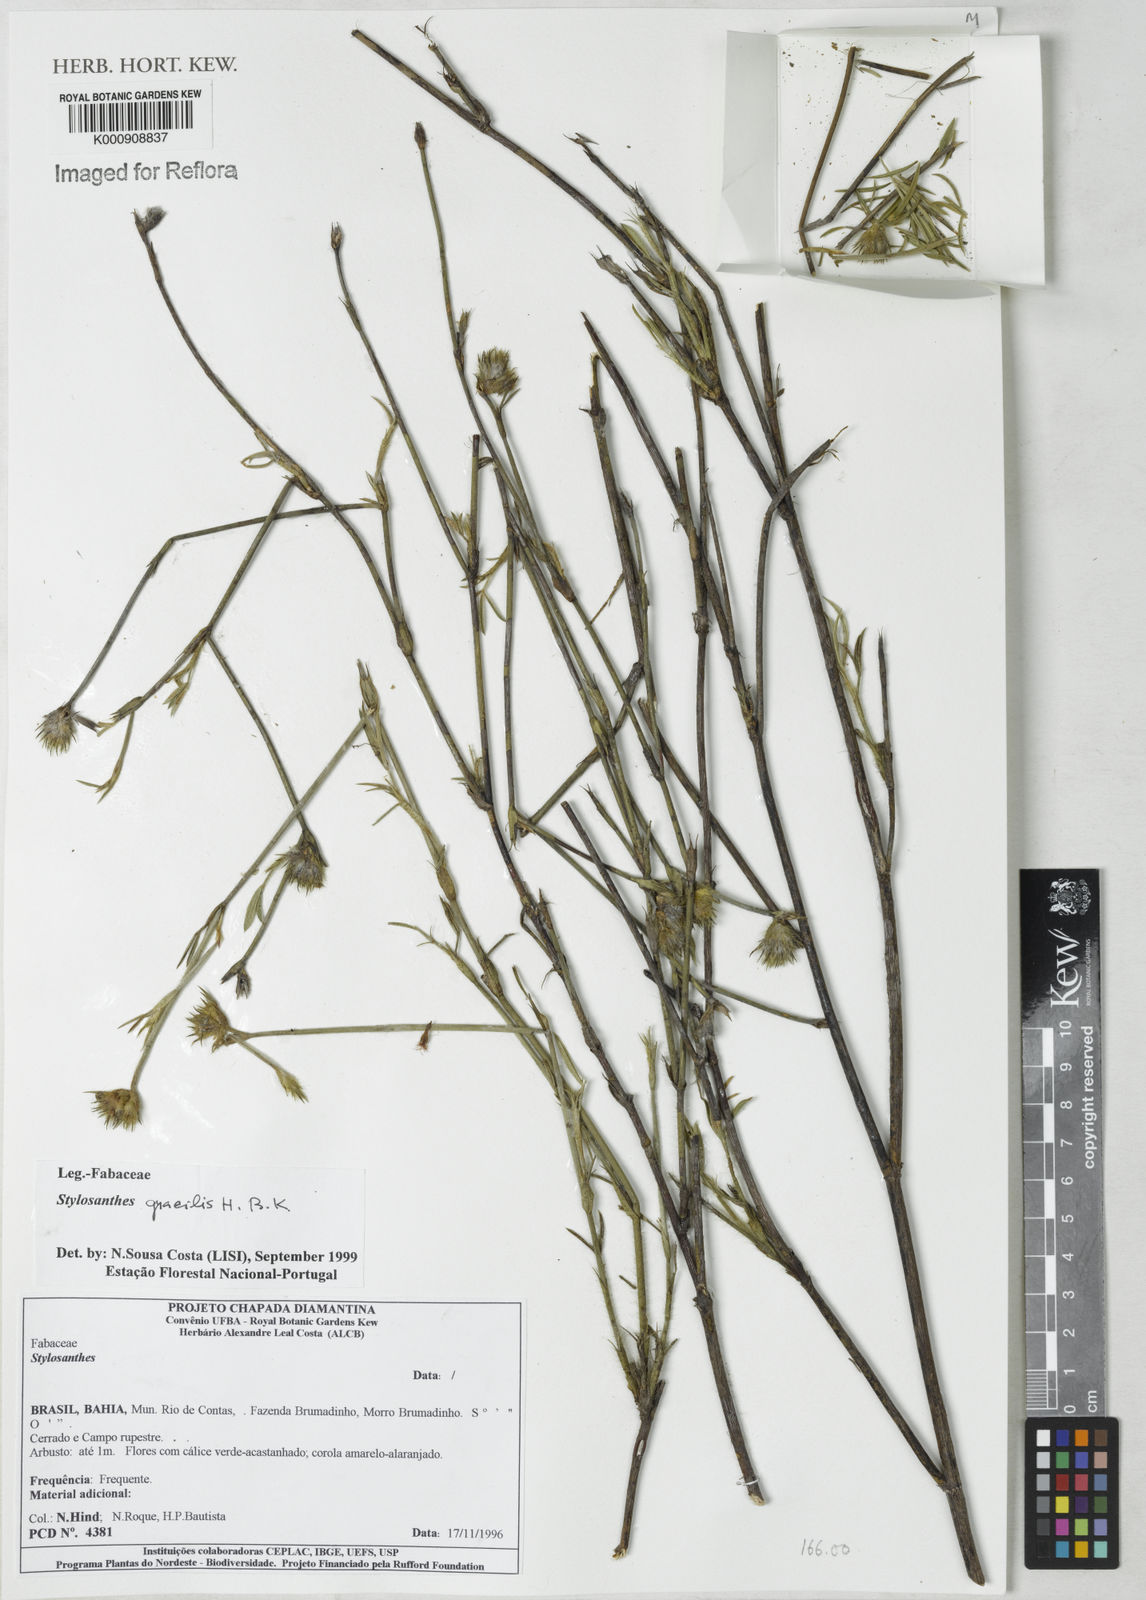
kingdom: Plantae
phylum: Tracheophyta
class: Magnoliopsida
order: Fabales
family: Fabaceae
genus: Stylosanthes
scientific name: Stylosanthes guianensis
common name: Pencil flower
